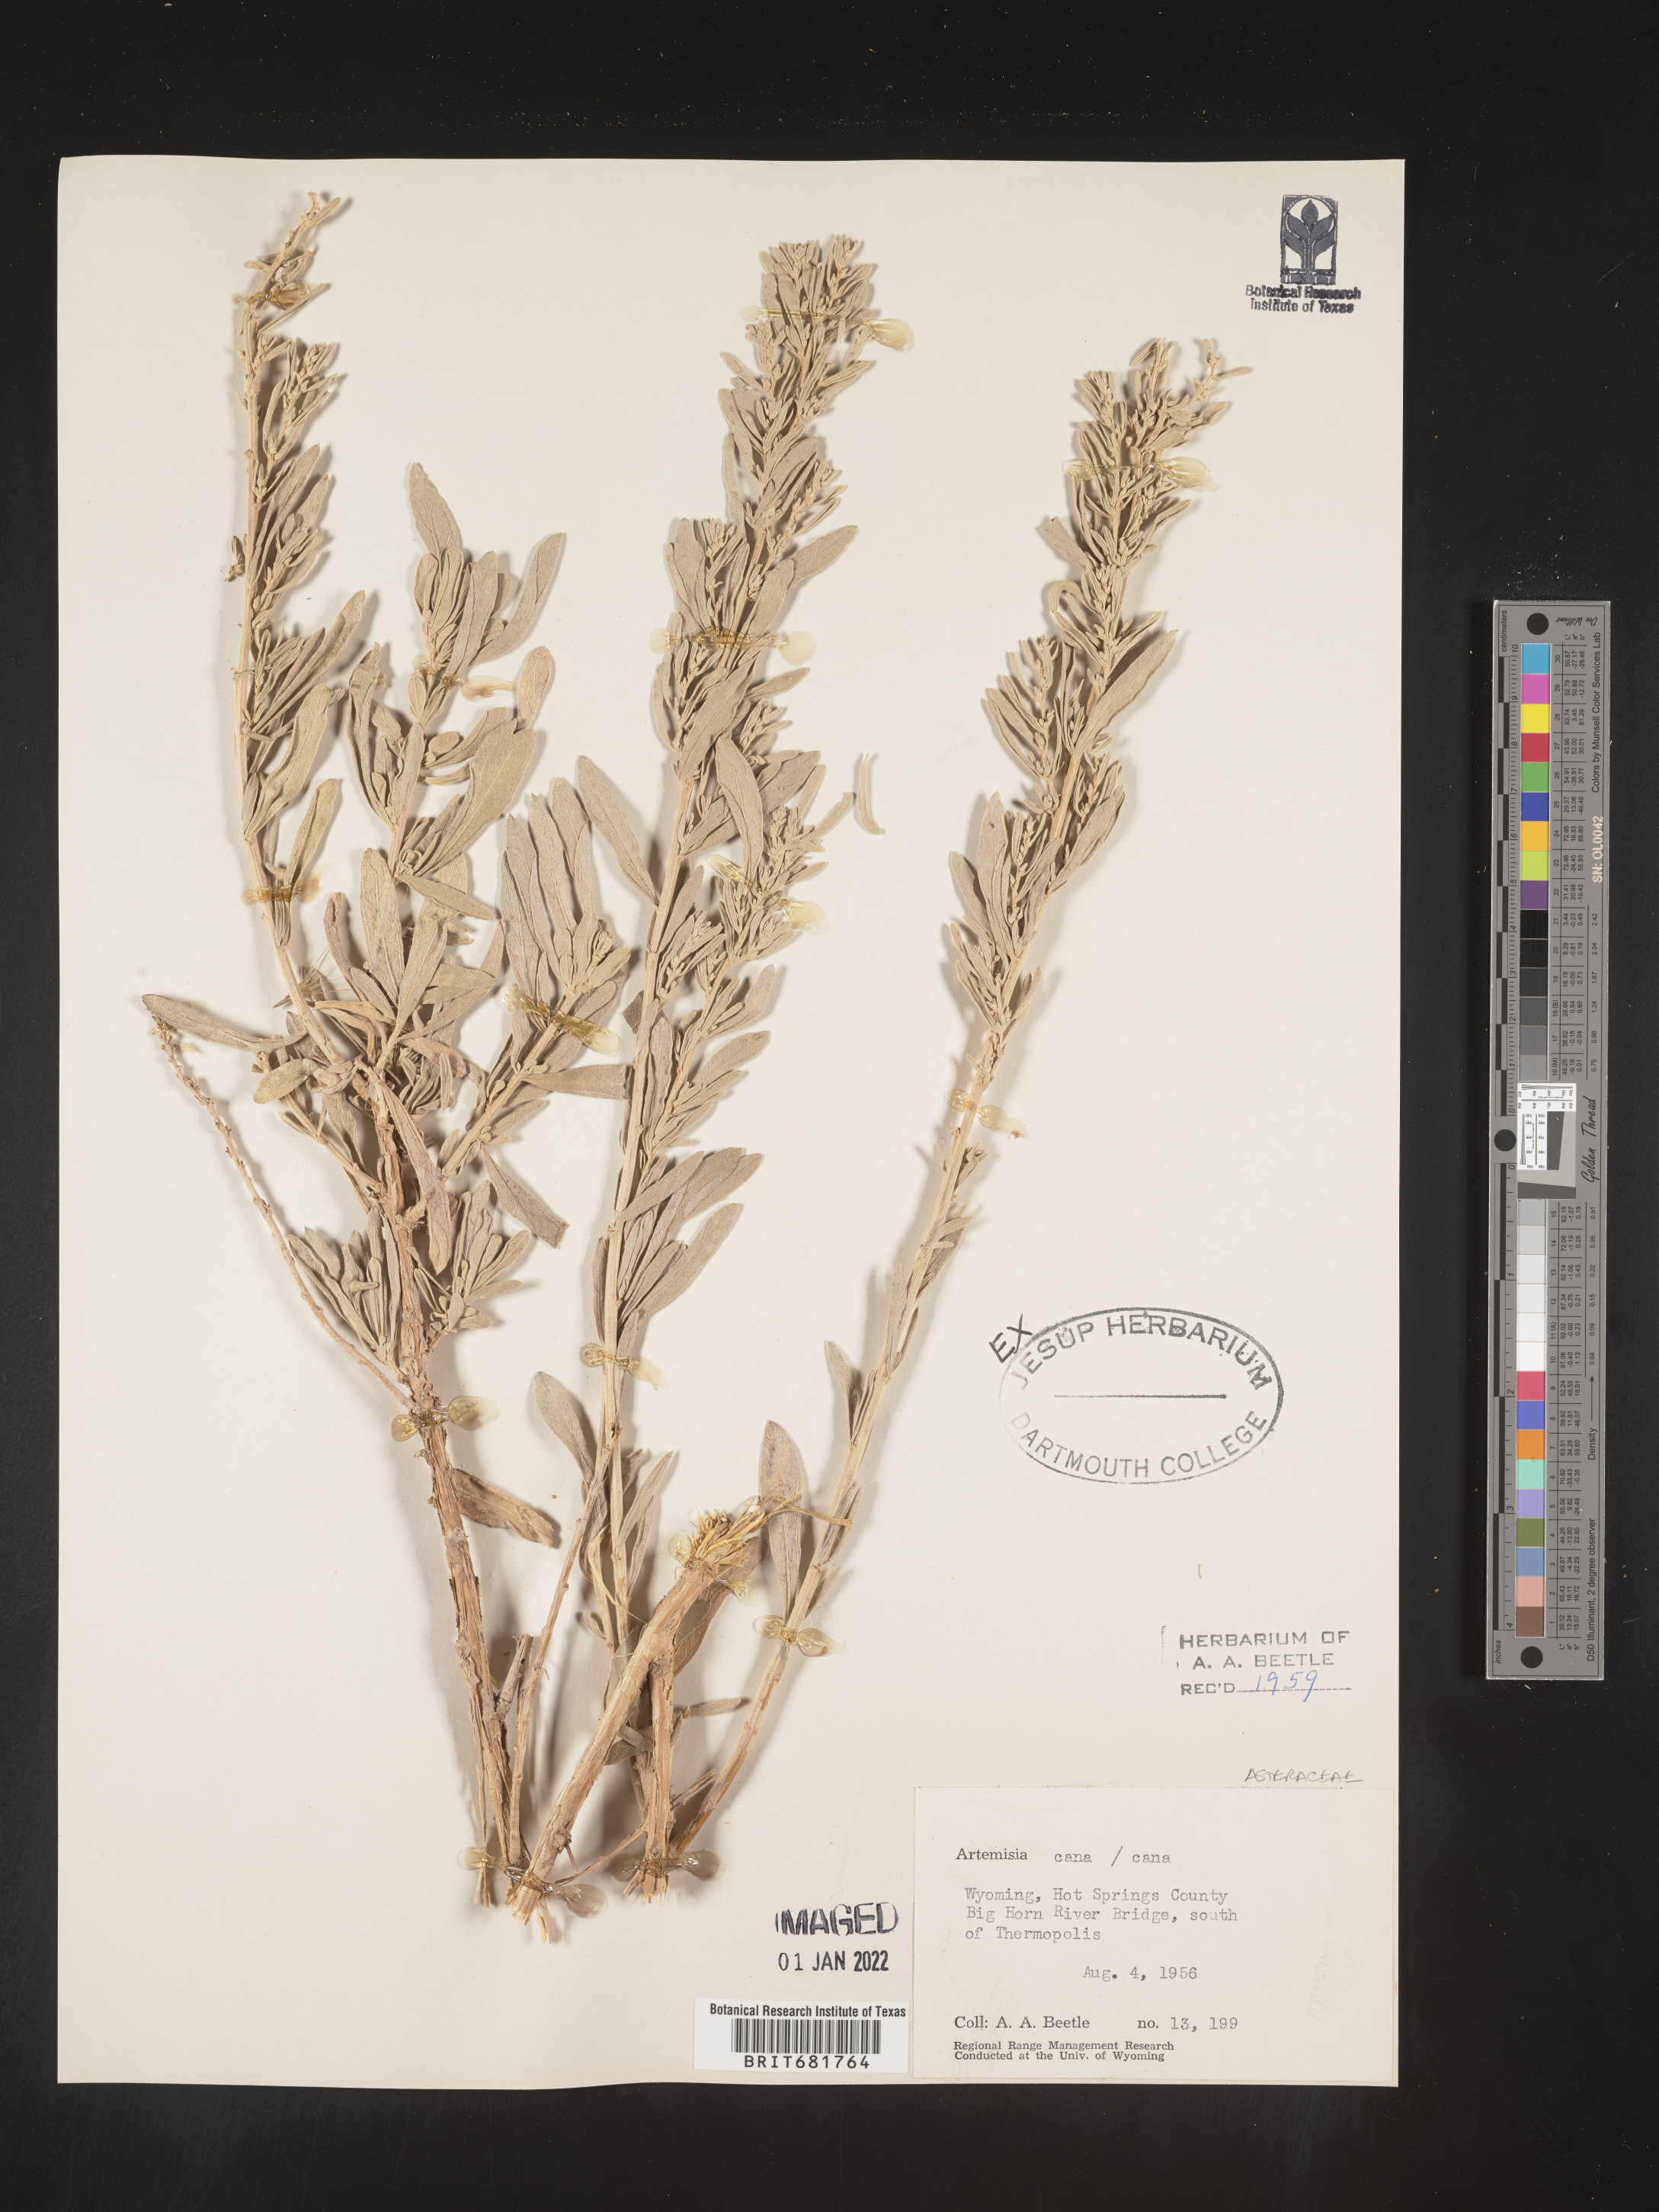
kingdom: Plantae
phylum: Tracheophyta
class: Magnoliopsida
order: Asterales
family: Asteraceae
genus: Artemisia
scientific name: Artemisia cana
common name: Silver sagebrush
